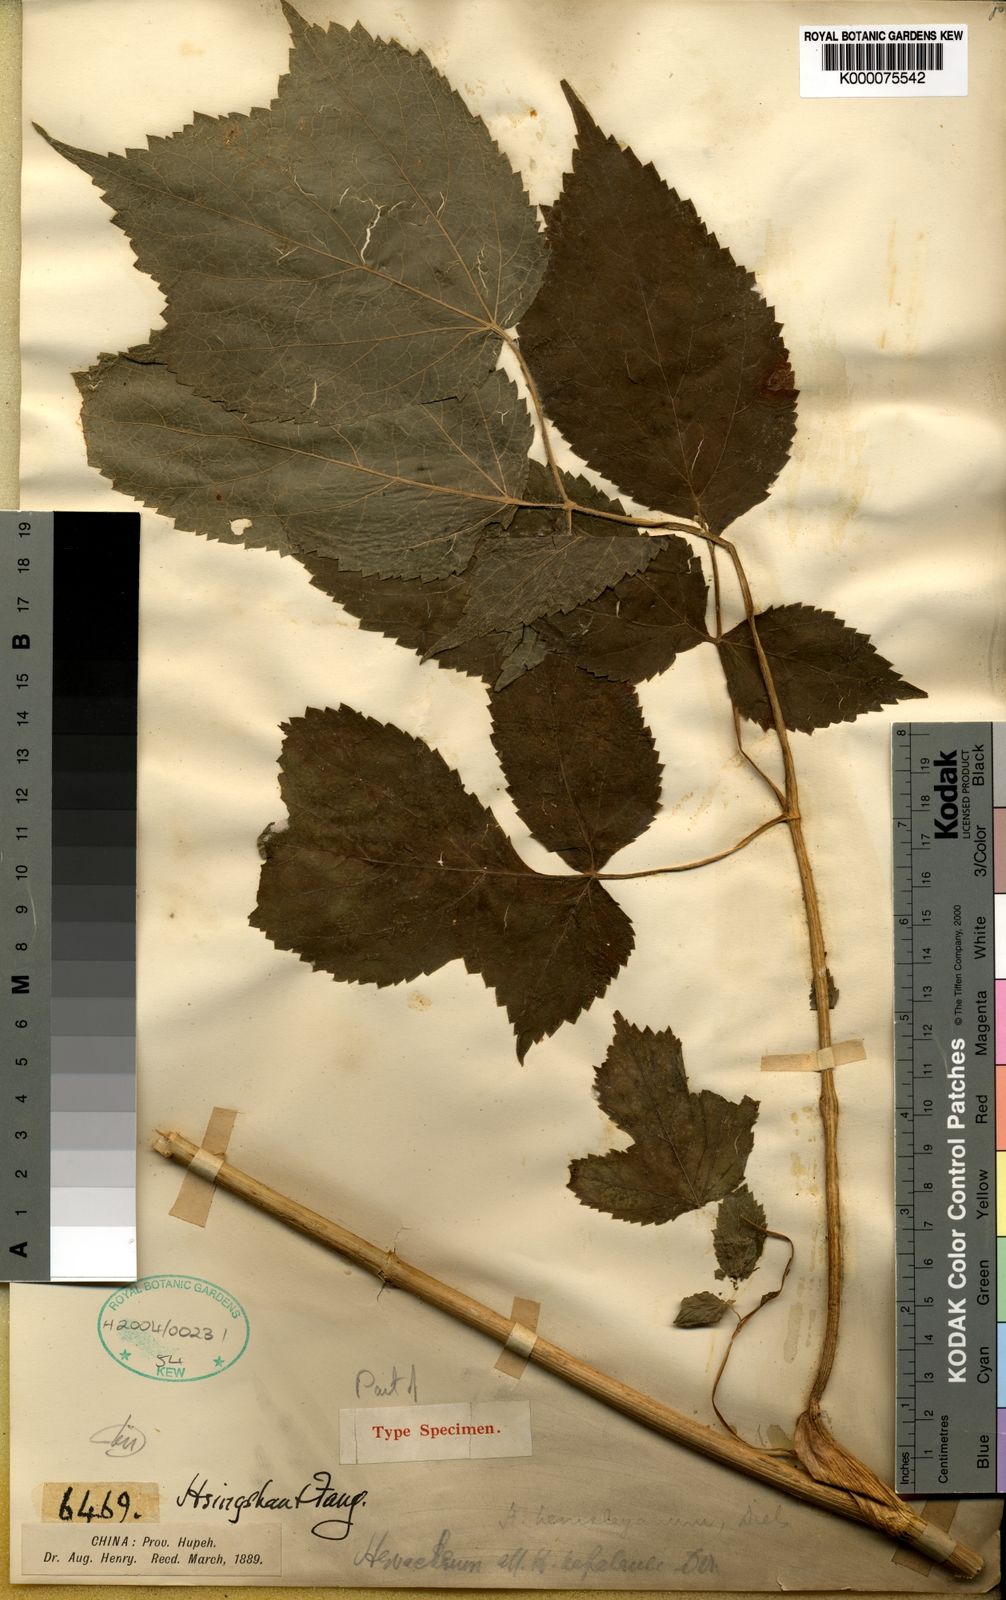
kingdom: Plantae
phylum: Tracheophyta
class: Magnoliopsida
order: Apiales
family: Apiaceae
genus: Heracleum
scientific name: Heracleum hemsleyanum
